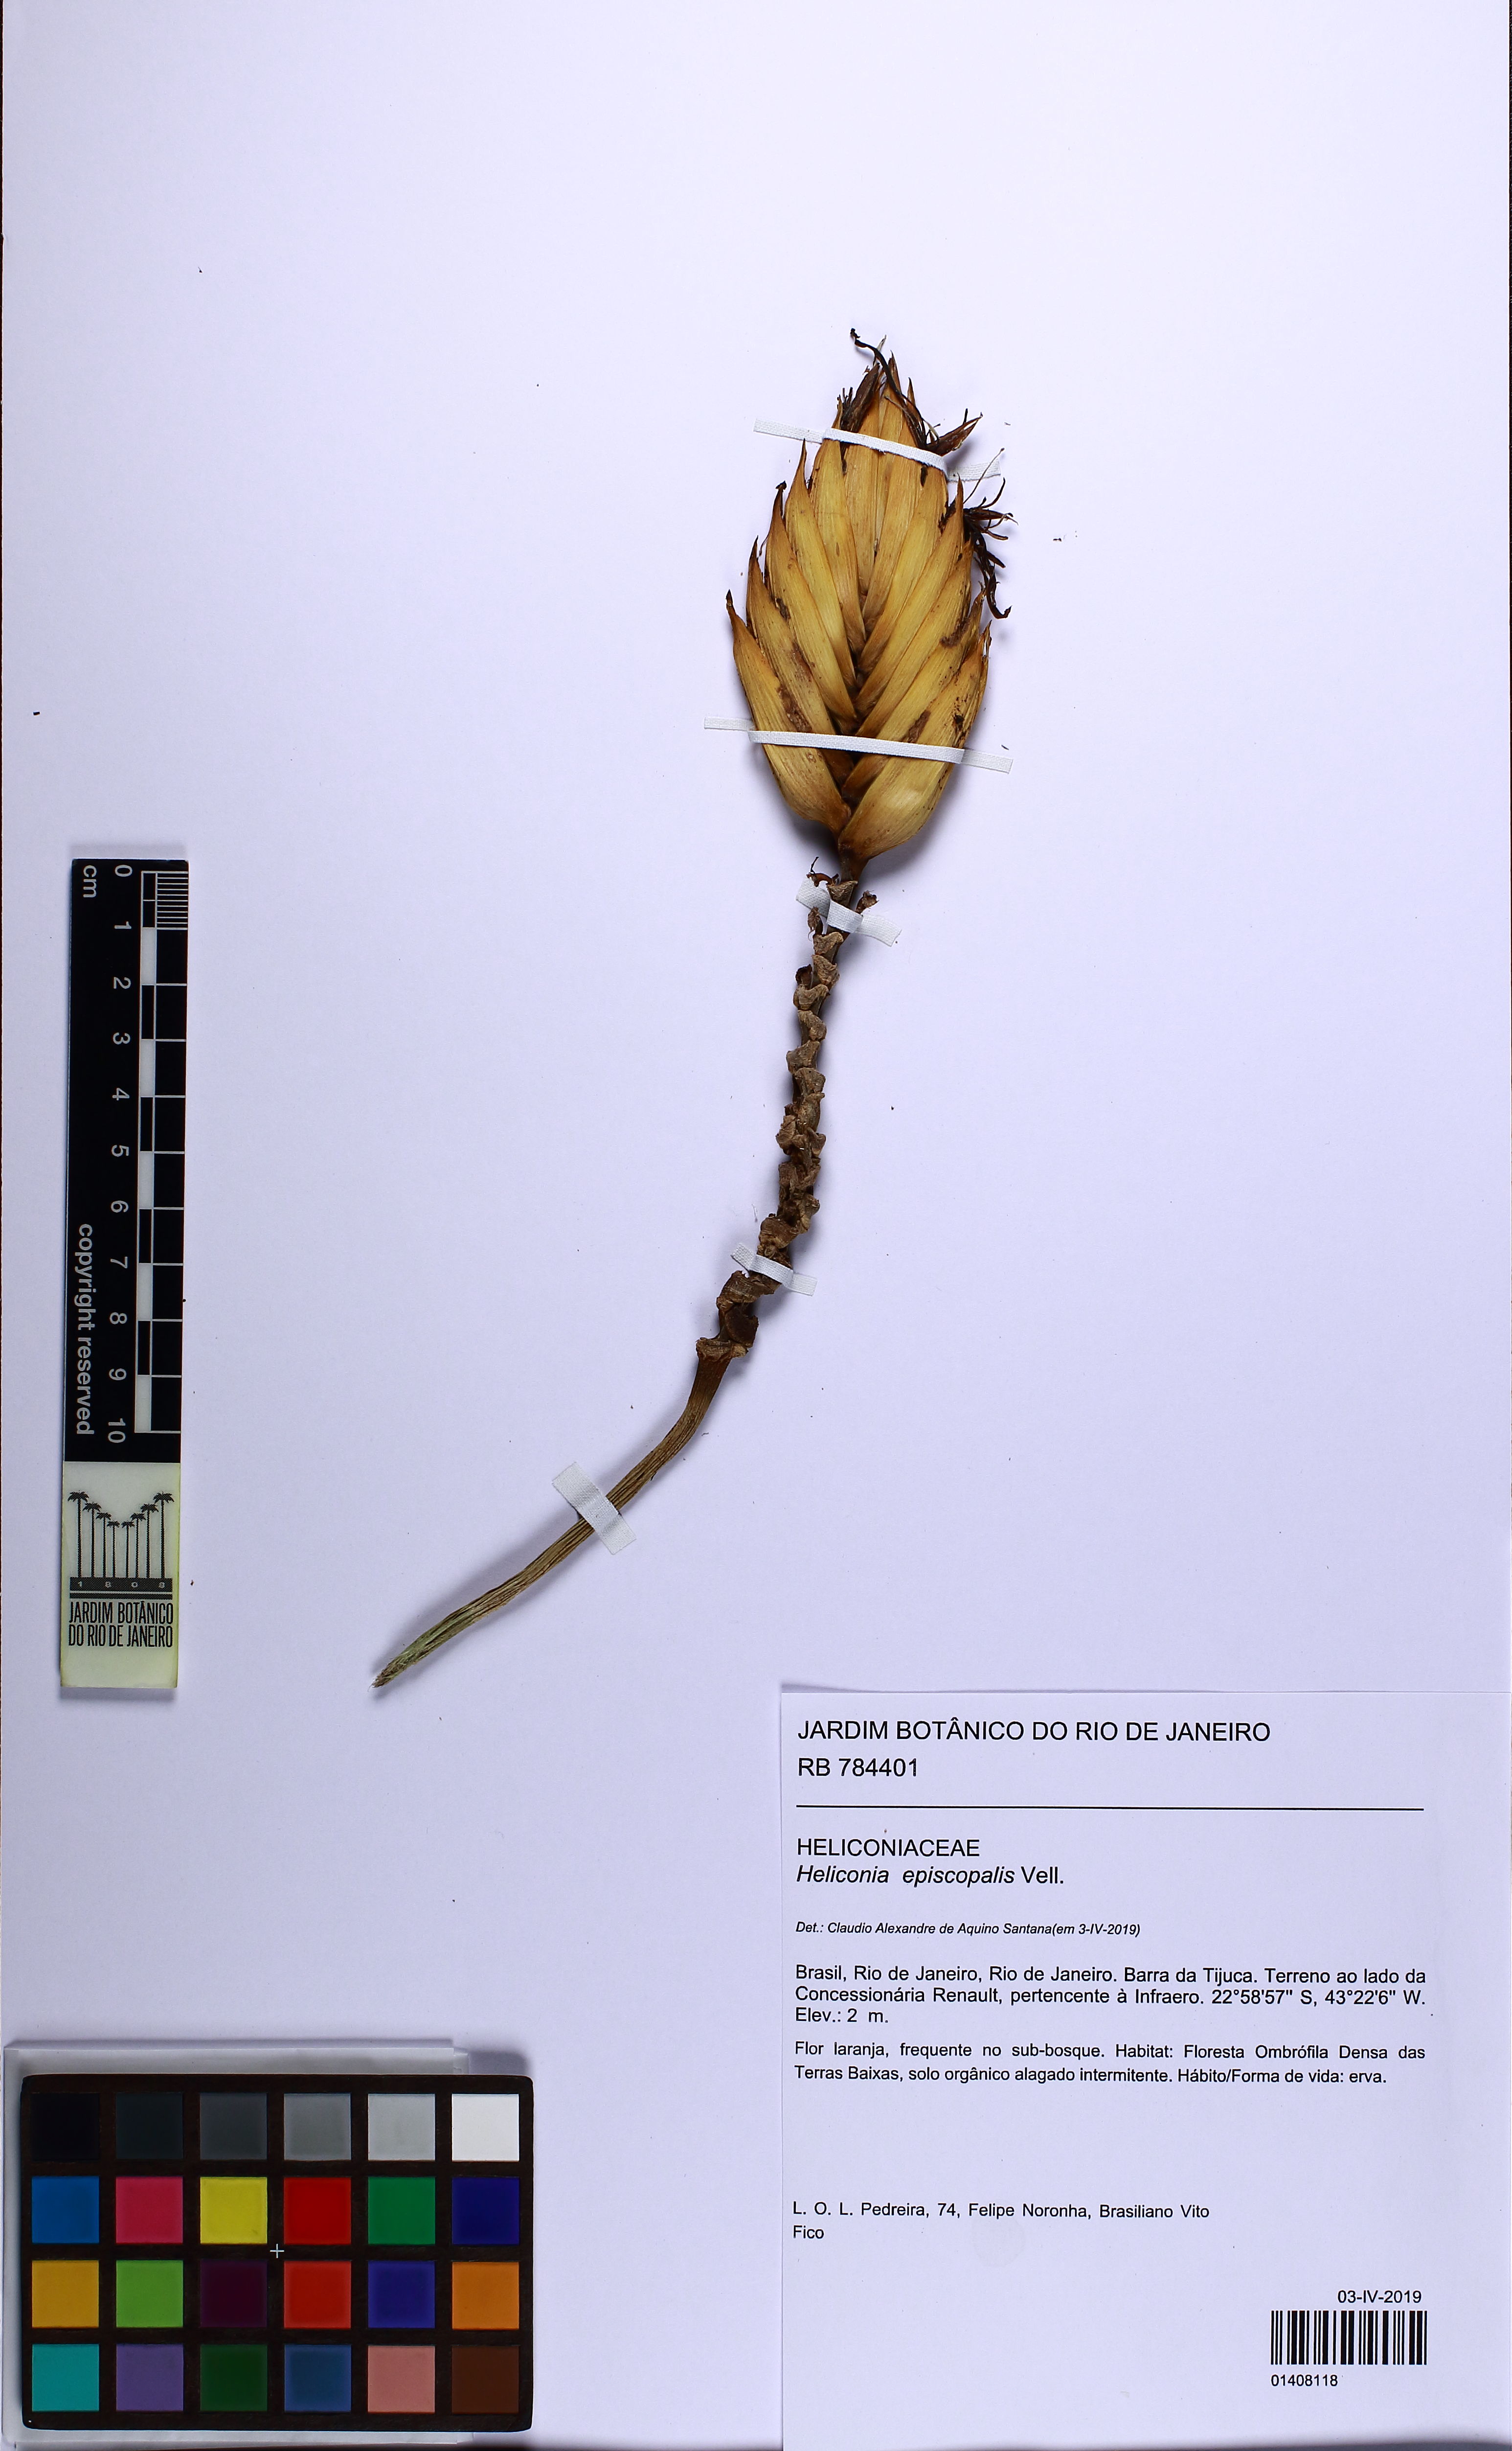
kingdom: Plantae
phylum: Tracheophyta
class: Liliopsida
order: Zingiberales
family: Heliconiaceae
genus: Heliconia
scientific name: Heliconia episcopalis
